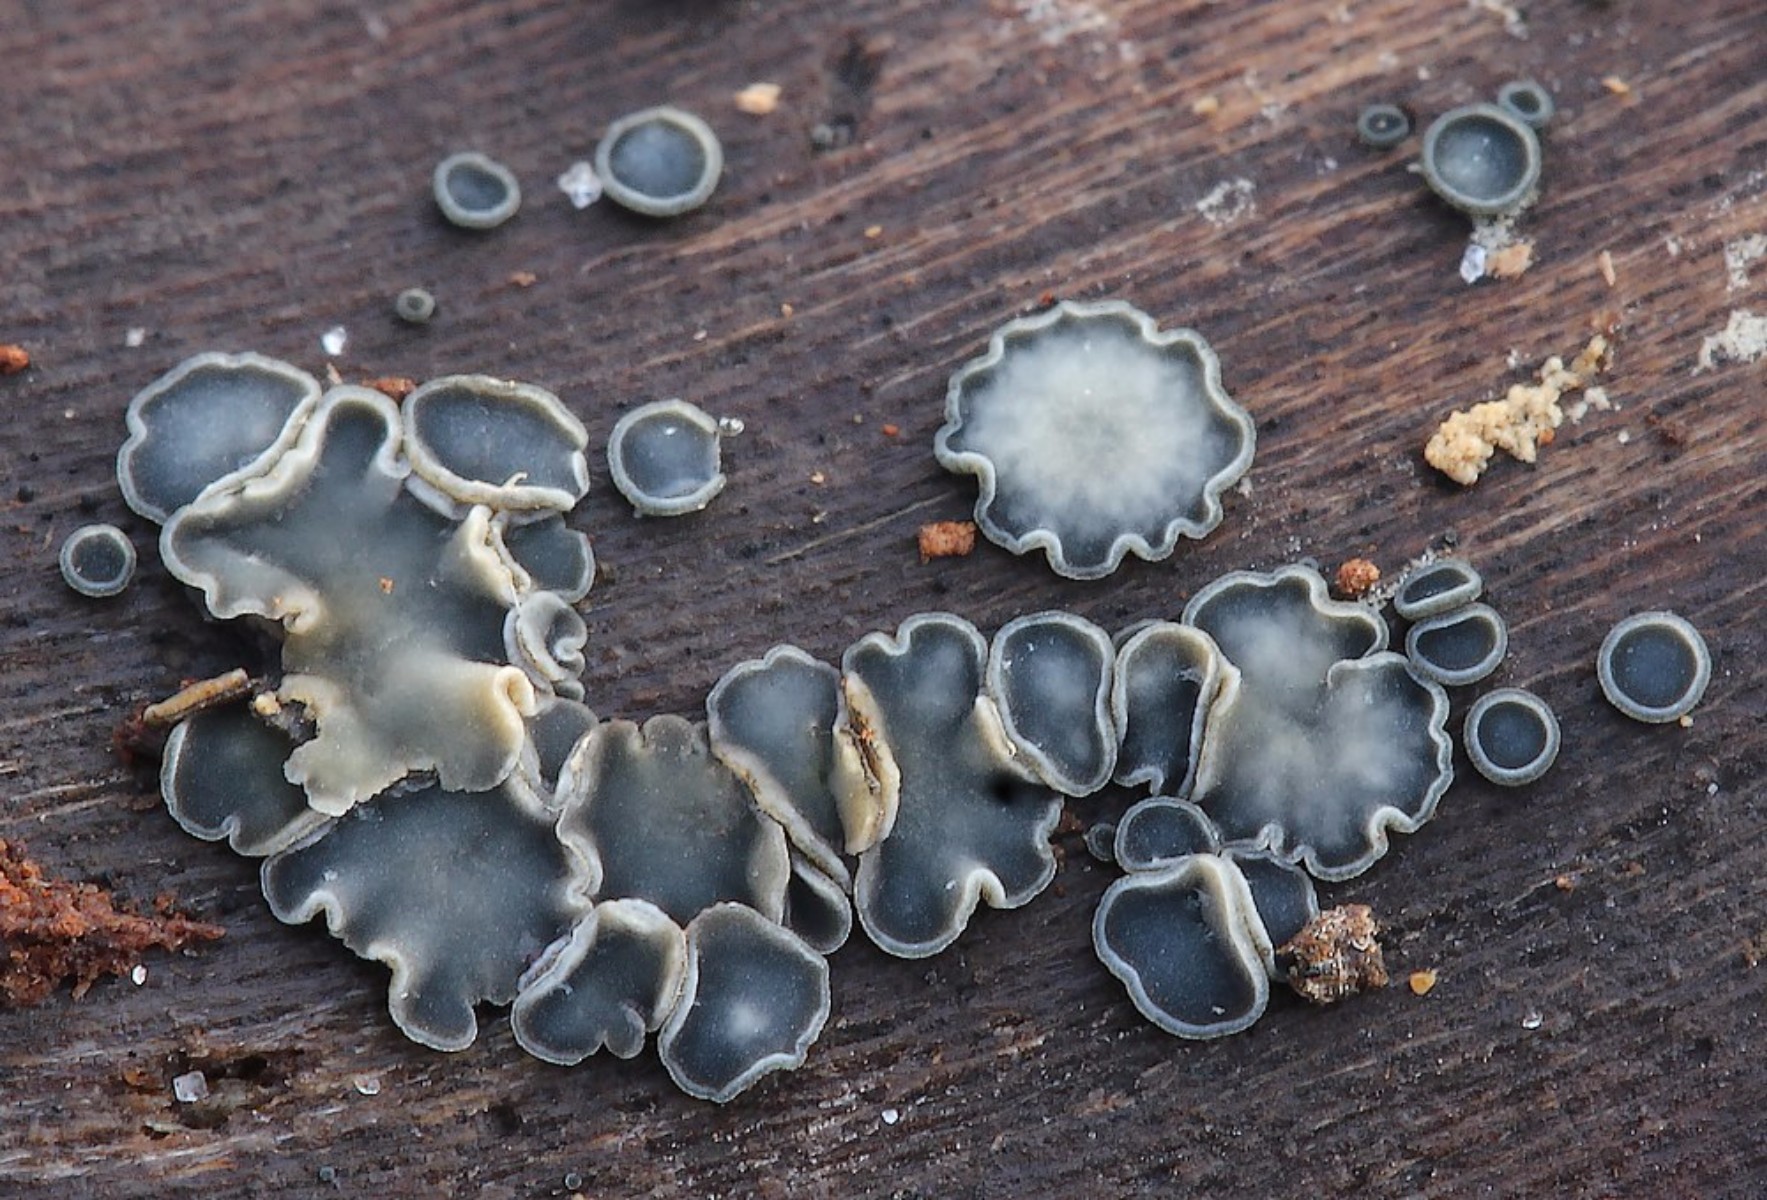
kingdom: Fungi
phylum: Ascomycota
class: Leotiomycetes
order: Helotiales
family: Mollisiaceae
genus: Mollisia
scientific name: Mollisia cinerea
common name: almindelig gråskive
